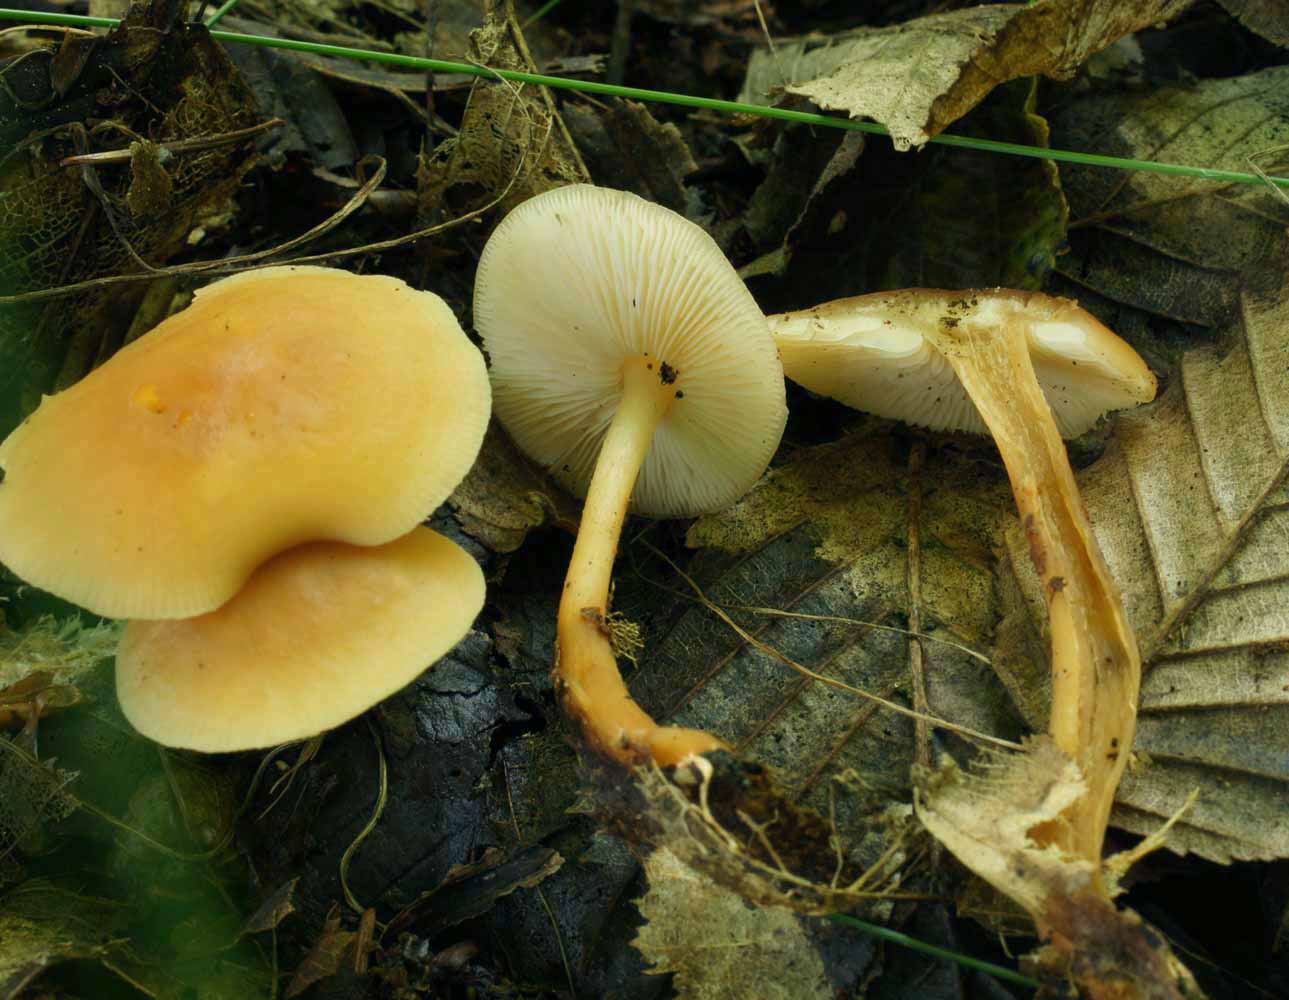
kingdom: Fungi
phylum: Basidiomycota
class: Agaricomycetes
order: Agaricales
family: Omphalotaceae
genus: Gymnopus
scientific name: Gymnopus dryophilus
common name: løv-fladhat
